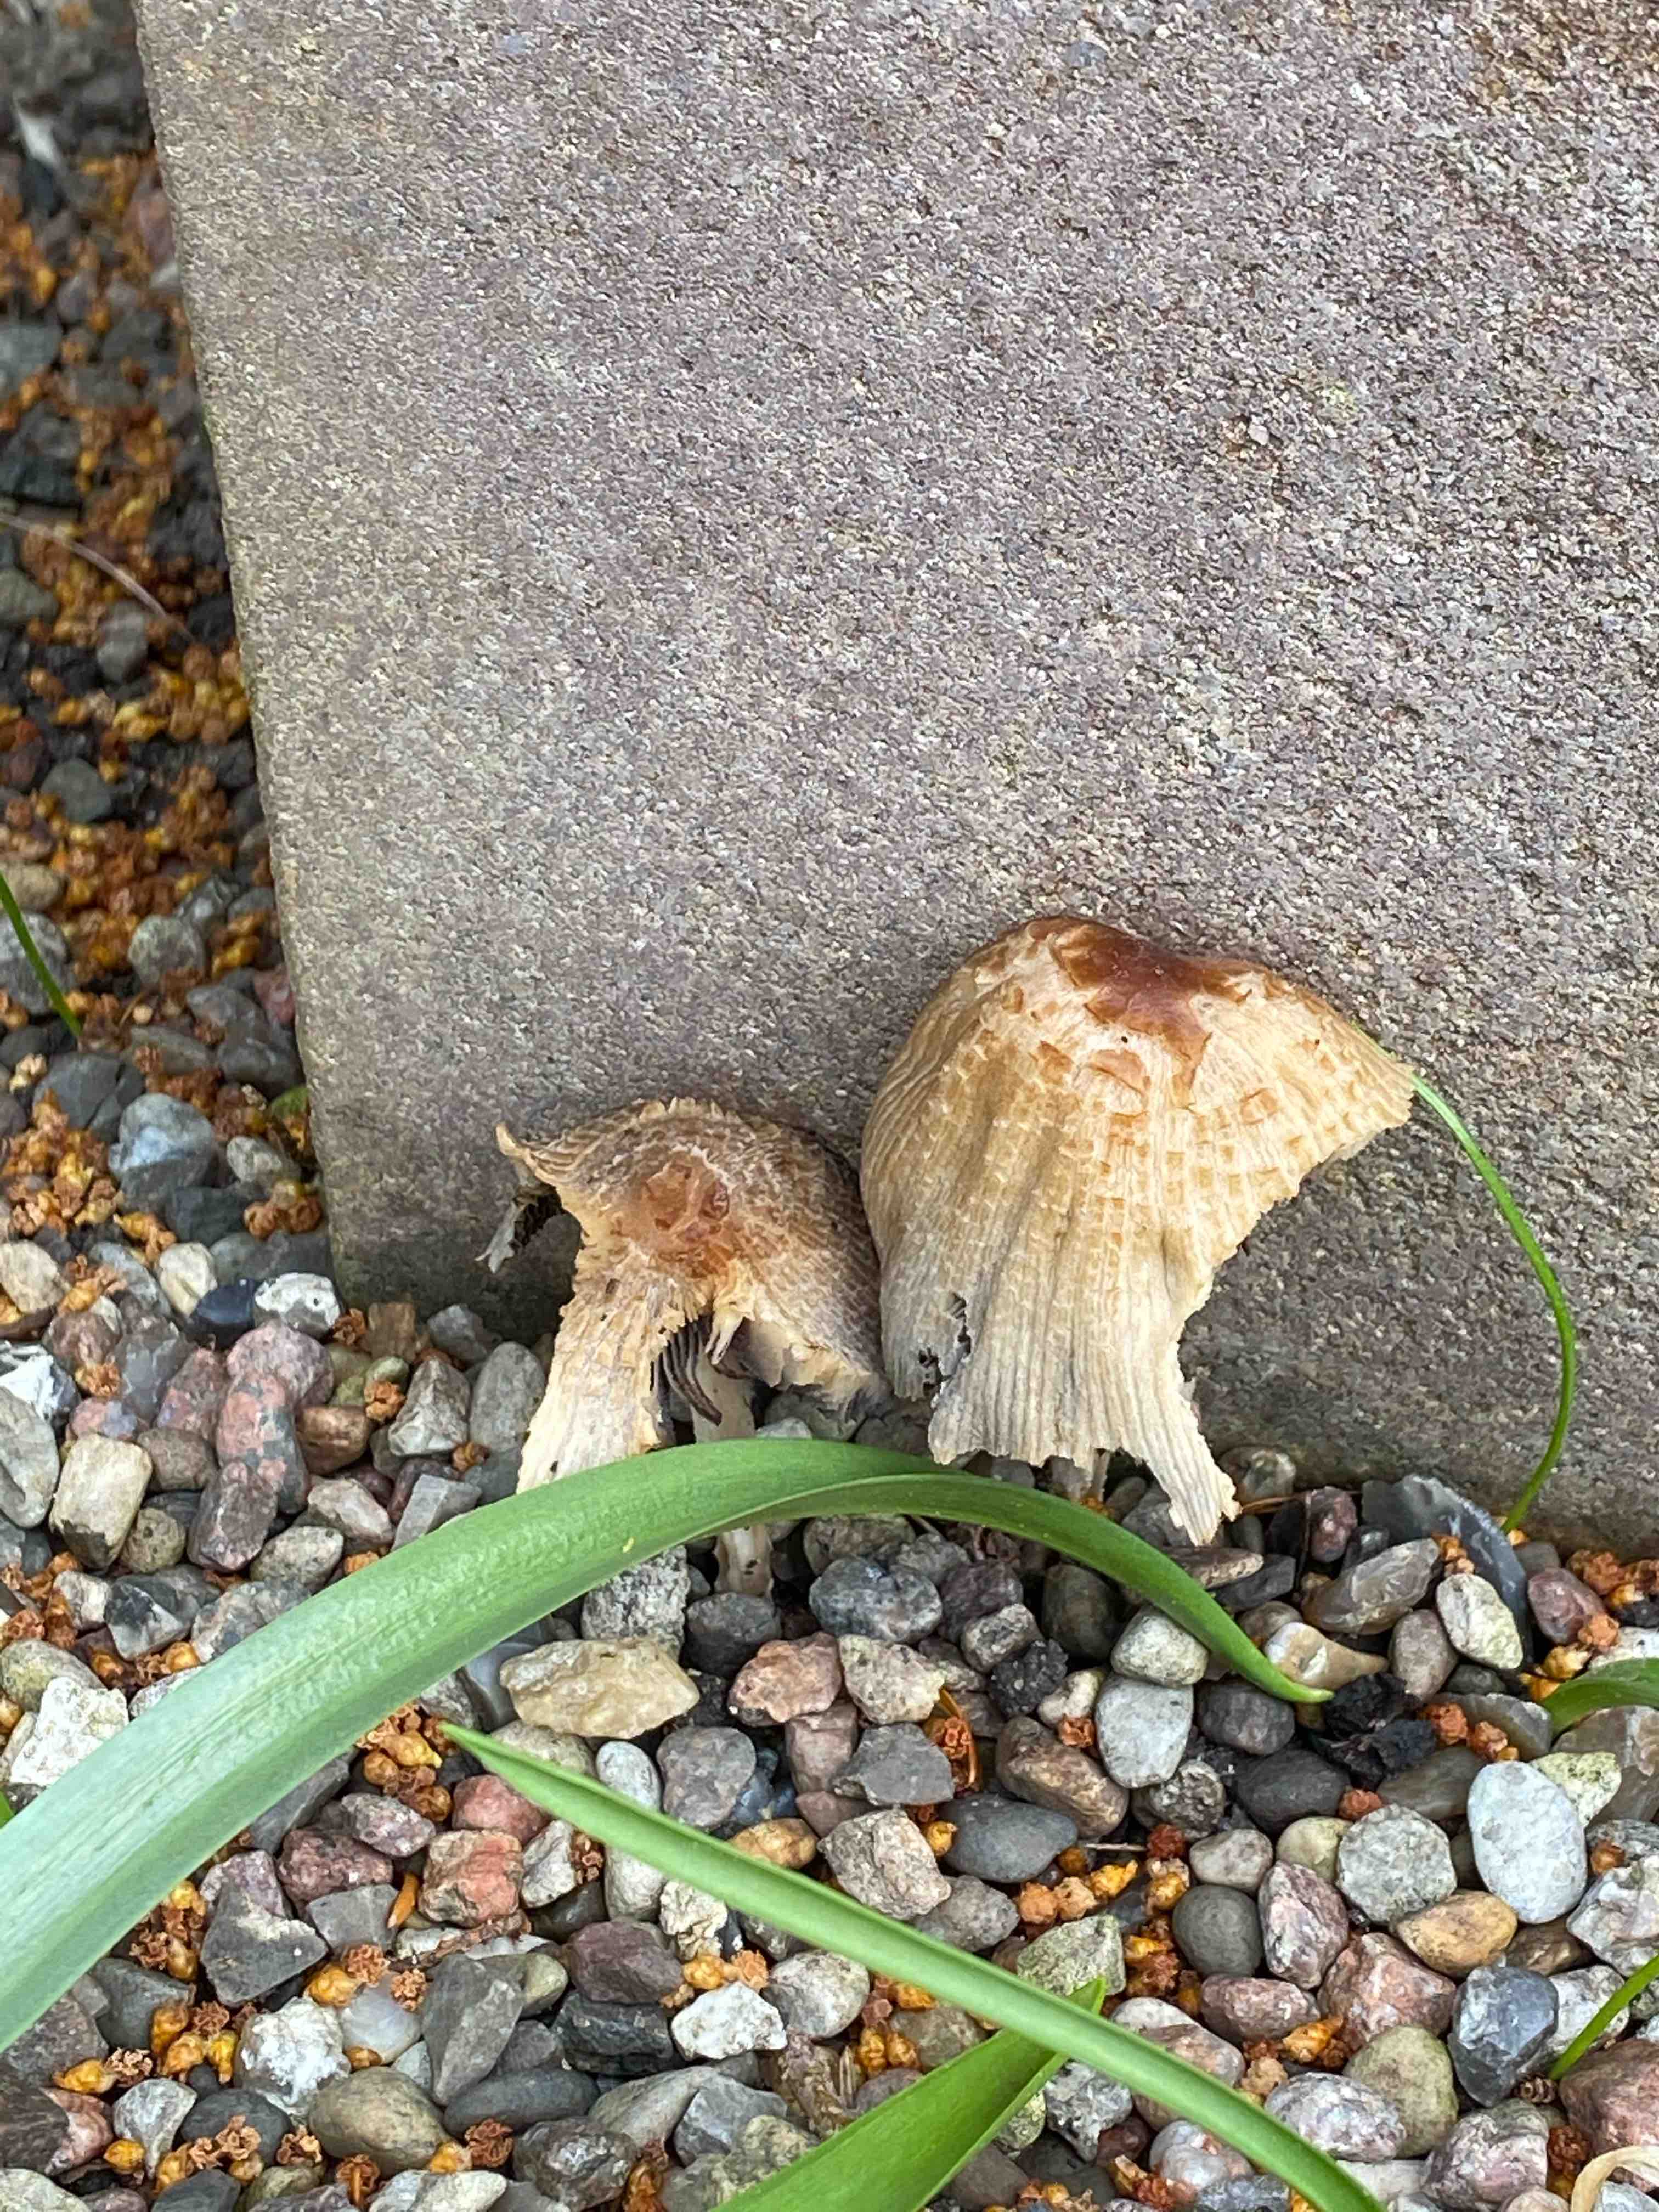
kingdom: Fungi
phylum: Basidiomycota
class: Agaricomycetes
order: Agaricales
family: Psathyrellaceae
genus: Coprinellus
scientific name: Coprinellus
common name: blækhat
